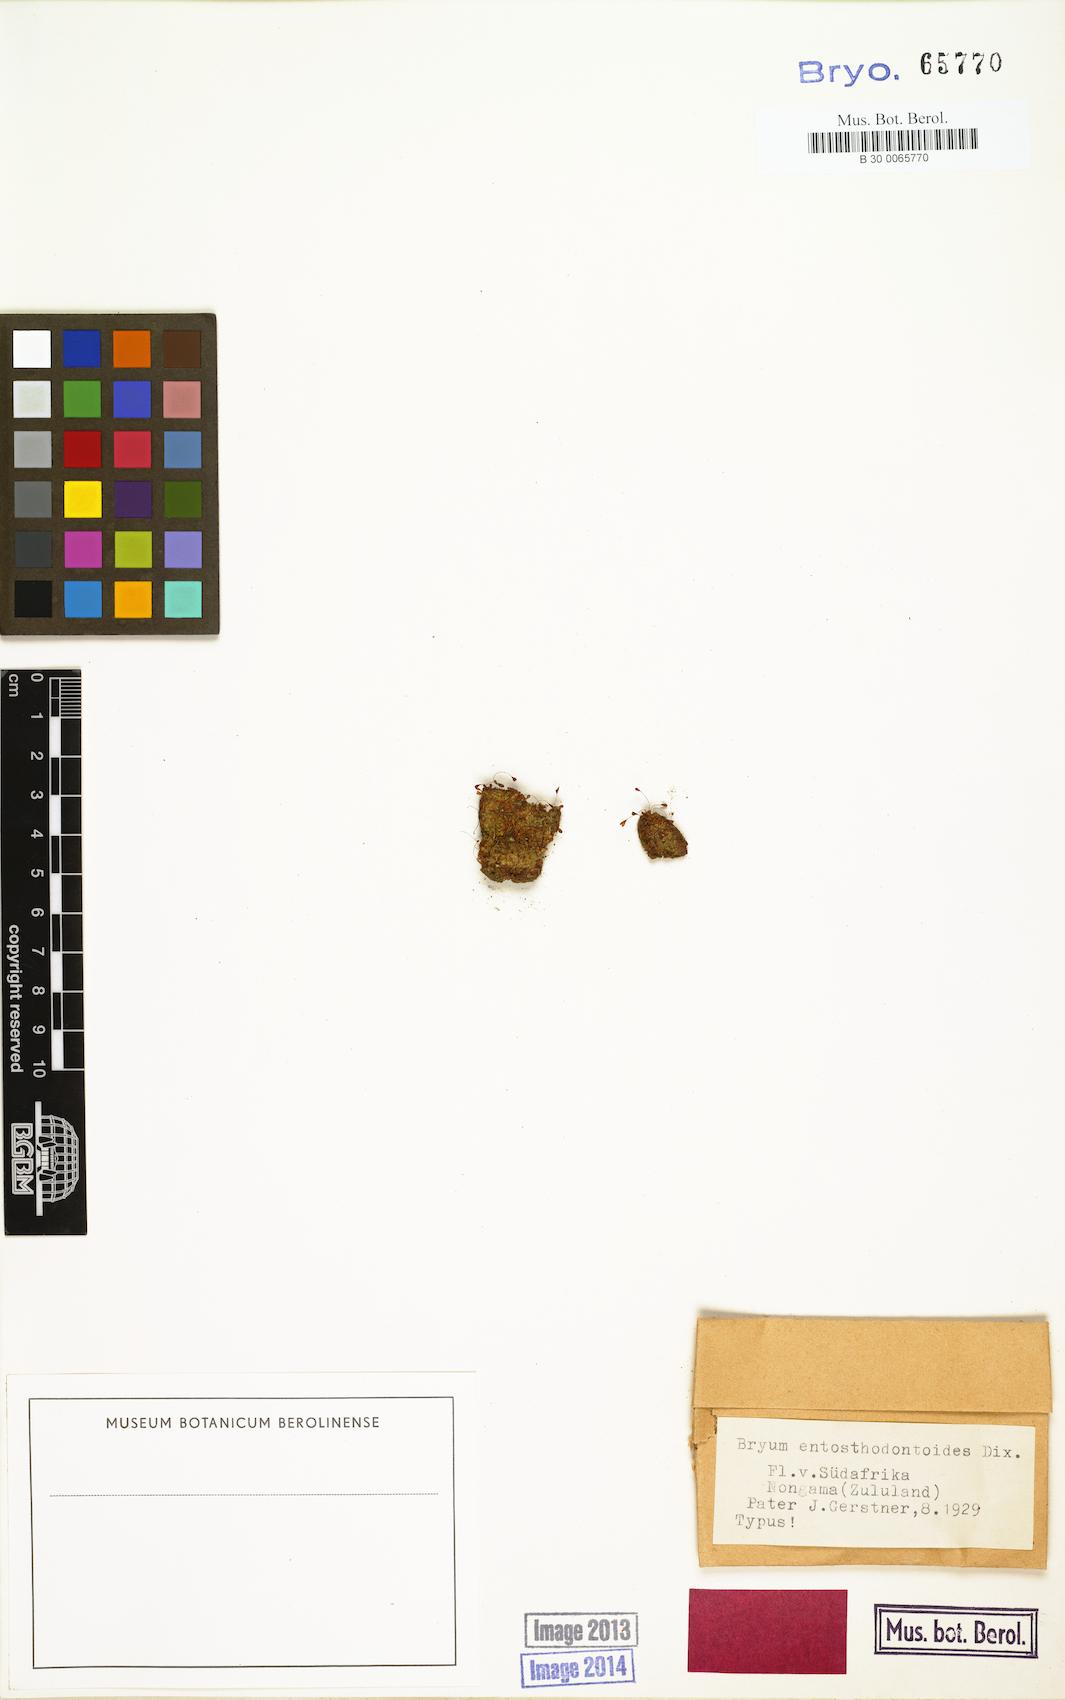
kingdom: Plantae
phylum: Bryophyta
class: Bryopsida
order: Bryales
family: Bryaceae
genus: Bryum
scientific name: Bryum
